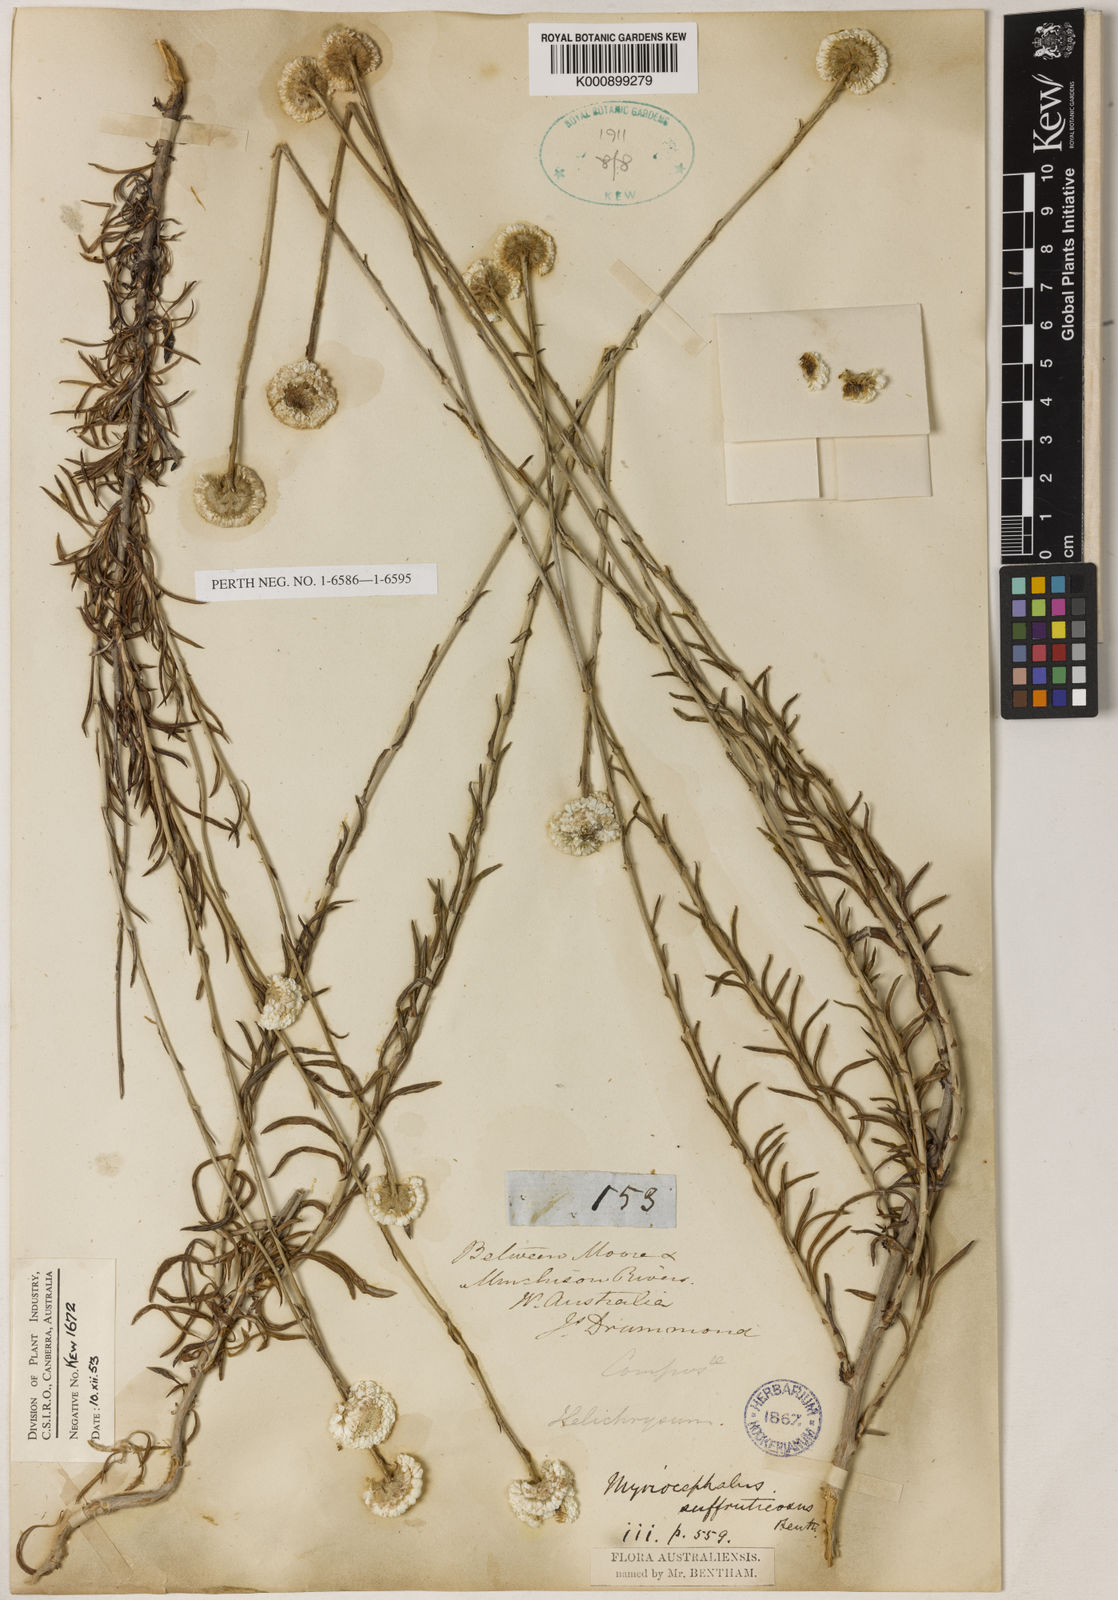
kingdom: Plantae
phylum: Tracheophyta
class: Magnoliopsida
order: Asterales
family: Asteraceae
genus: Rhetinocarpha
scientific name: Rhetinocarpha suffruticosa
